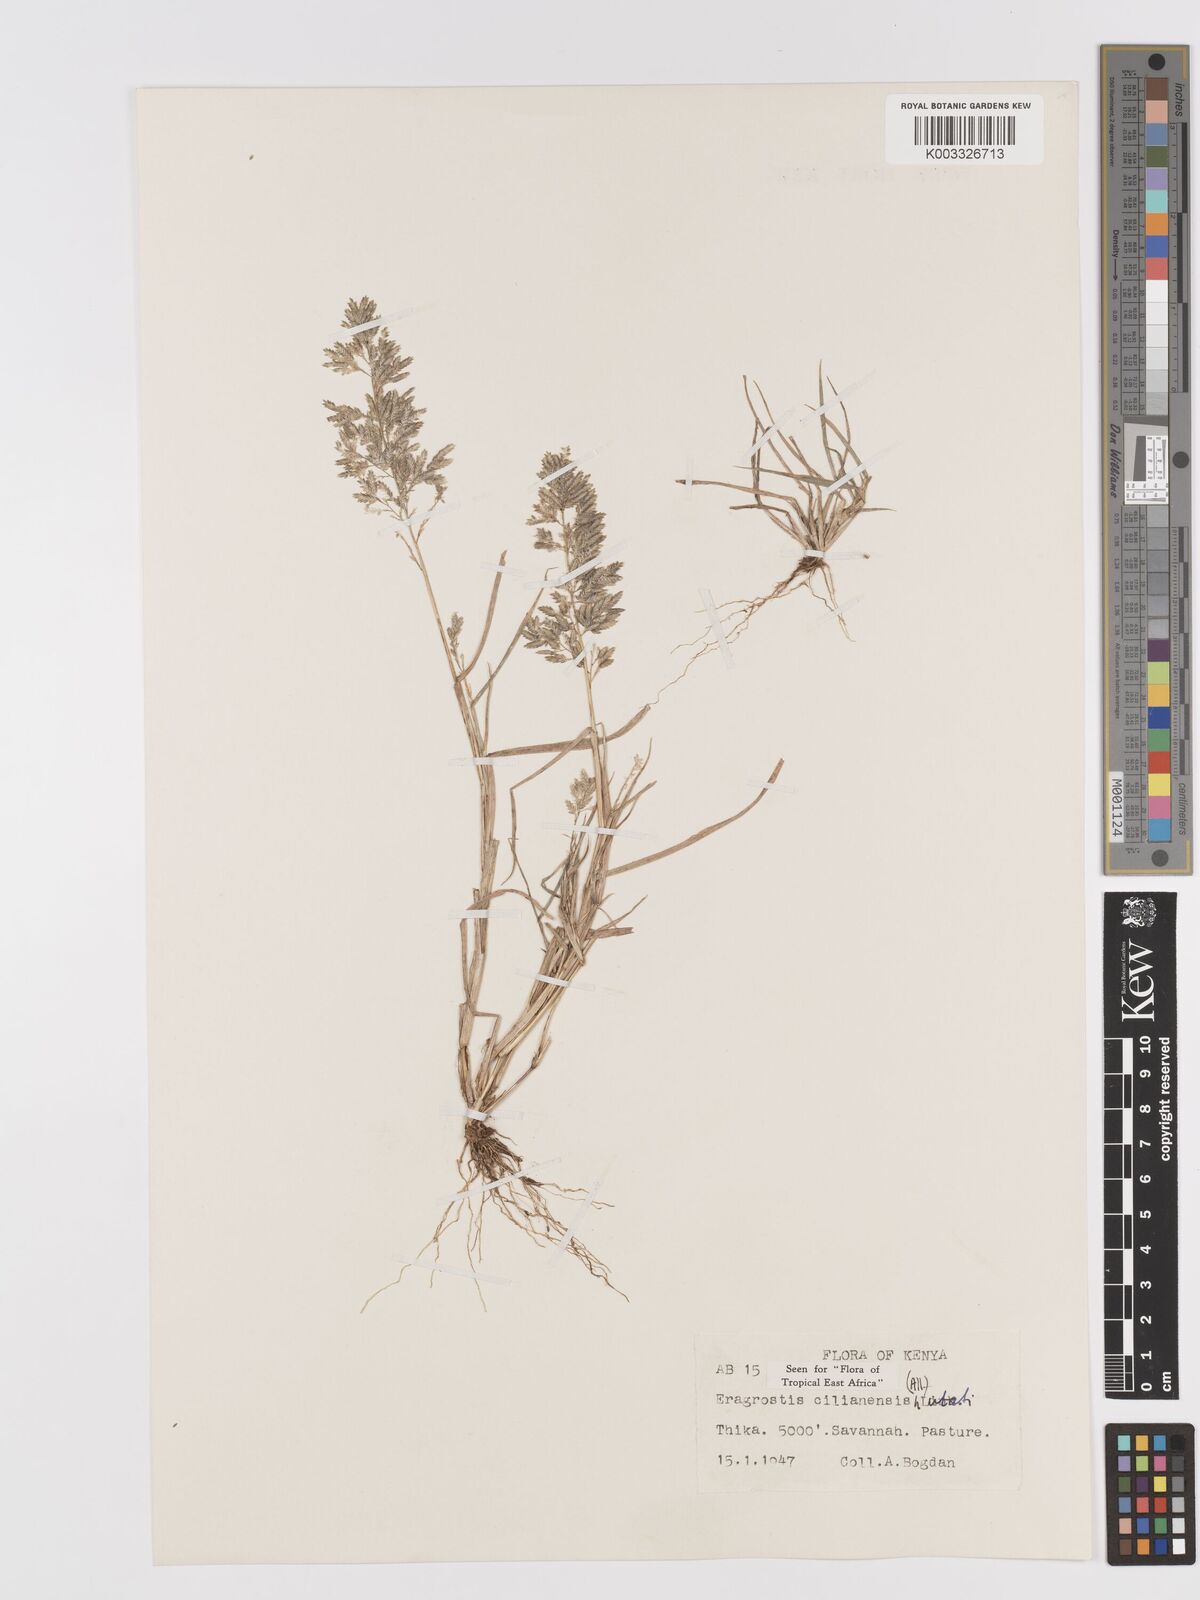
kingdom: Plantae
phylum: Tracheophyta
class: Liliopsida
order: Poales
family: Poaceae
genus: Eragrostis
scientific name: Eragrostis cilianensis
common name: Stinkgrass
